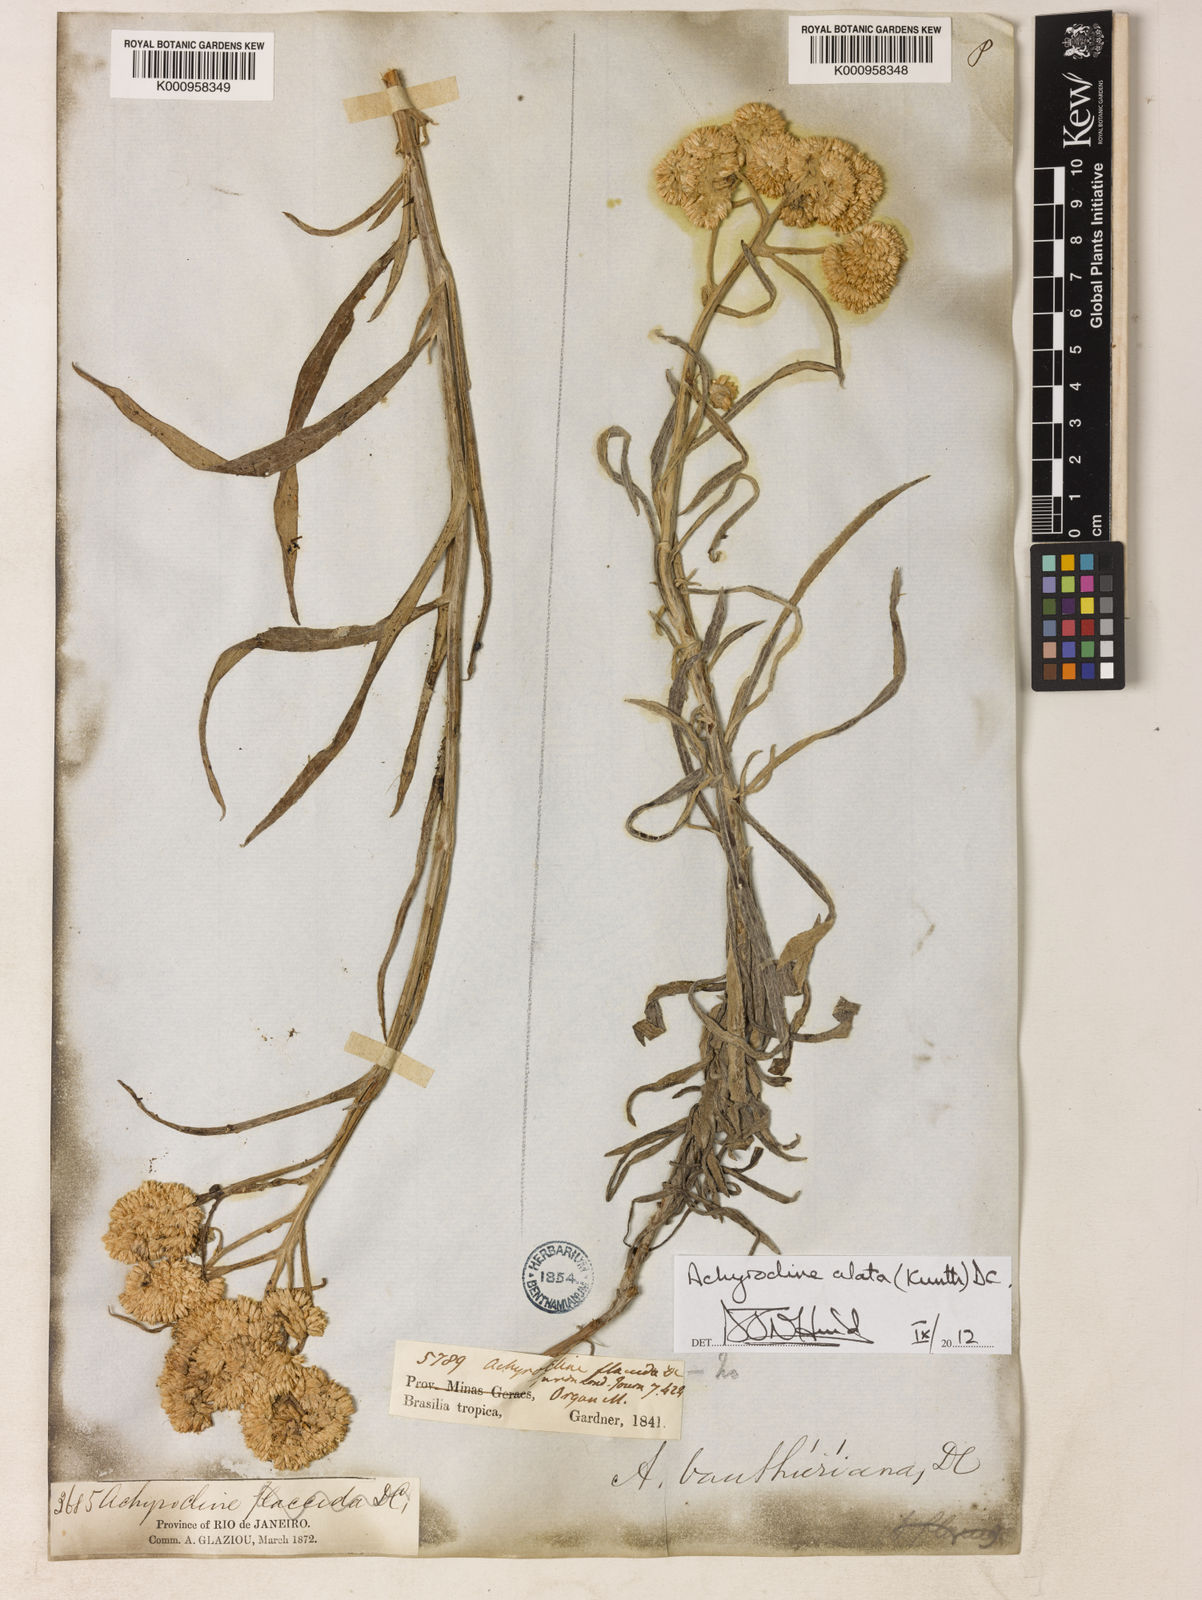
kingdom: Plantae
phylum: Tracheophyta
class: Magnoliopsida
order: Asterales
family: Asteraceae
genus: Achyrocline
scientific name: Achyrocline vauthieriana
